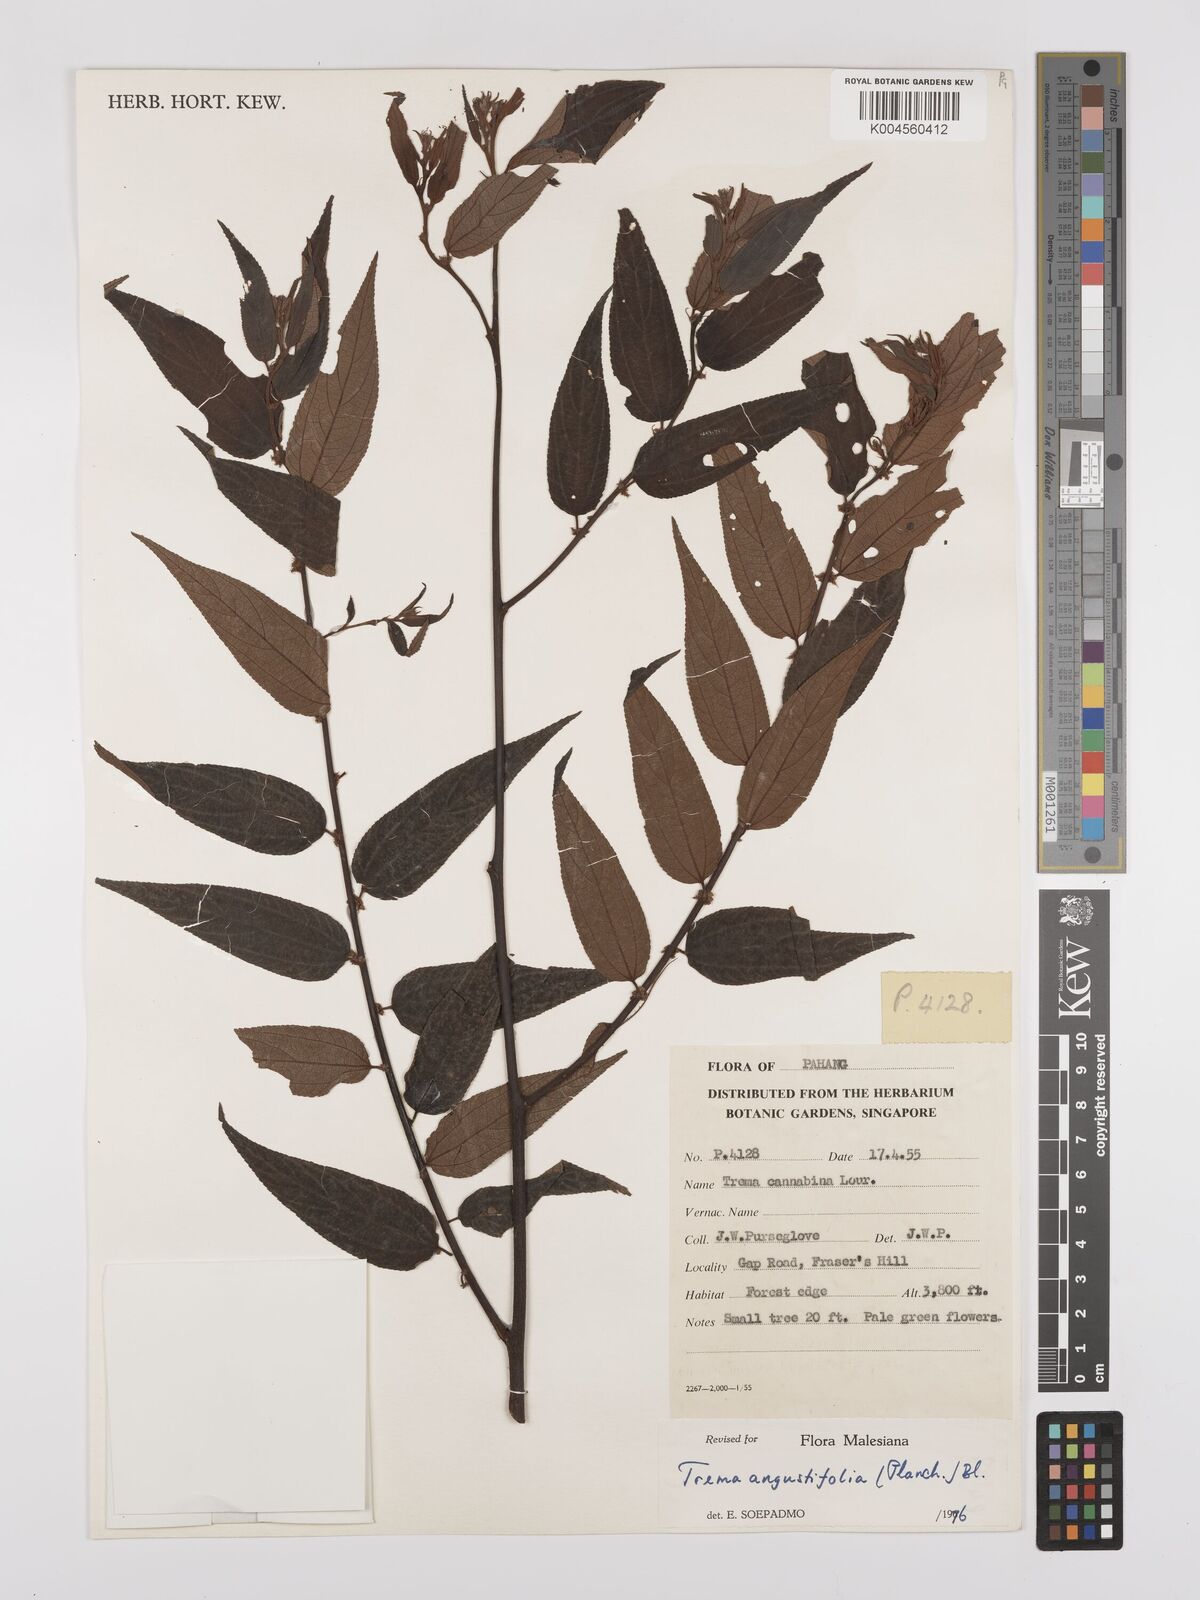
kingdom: Plantae
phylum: Tracheophyta
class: Magnoliopsida
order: Rosales
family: Cannabaceae
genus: Trema
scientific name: Trema angustifolium
